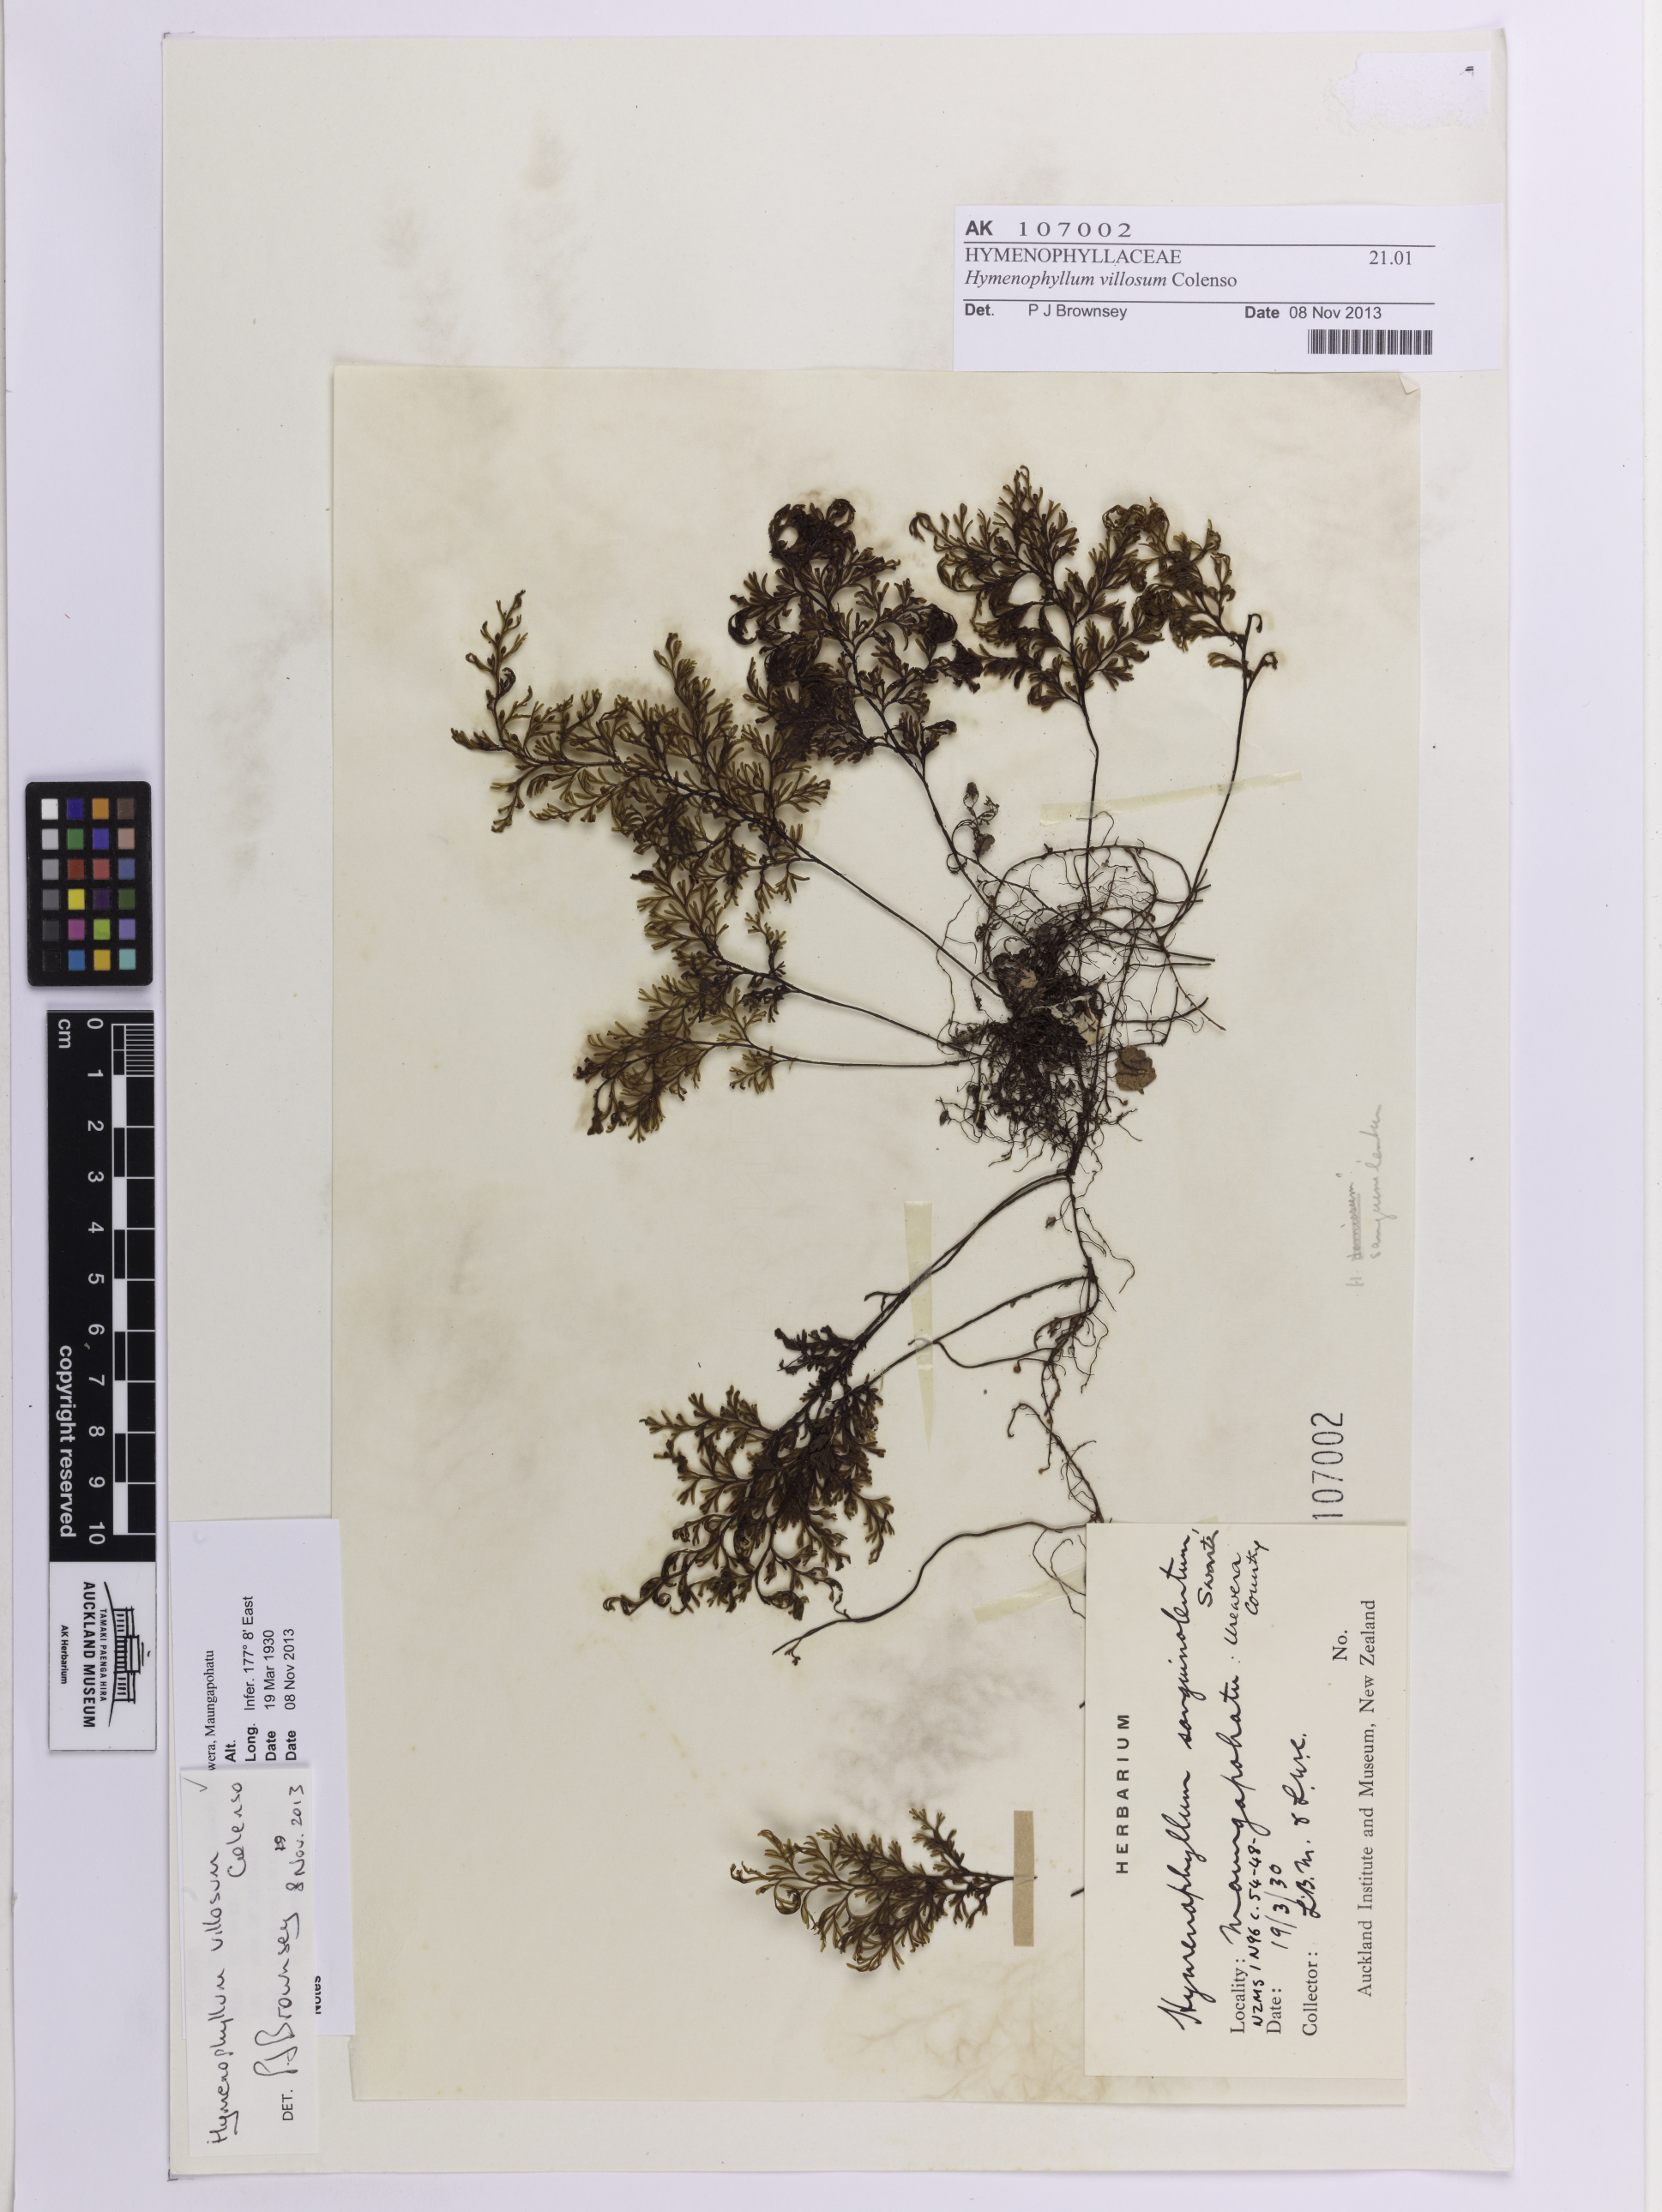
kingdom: Plantae
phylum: Tracheophyta
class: Polypodiopsida
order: Hymenophyllales
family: Hymenophyllaceae
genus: Hymenophyllum
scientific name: Hymenophyllum villosum
